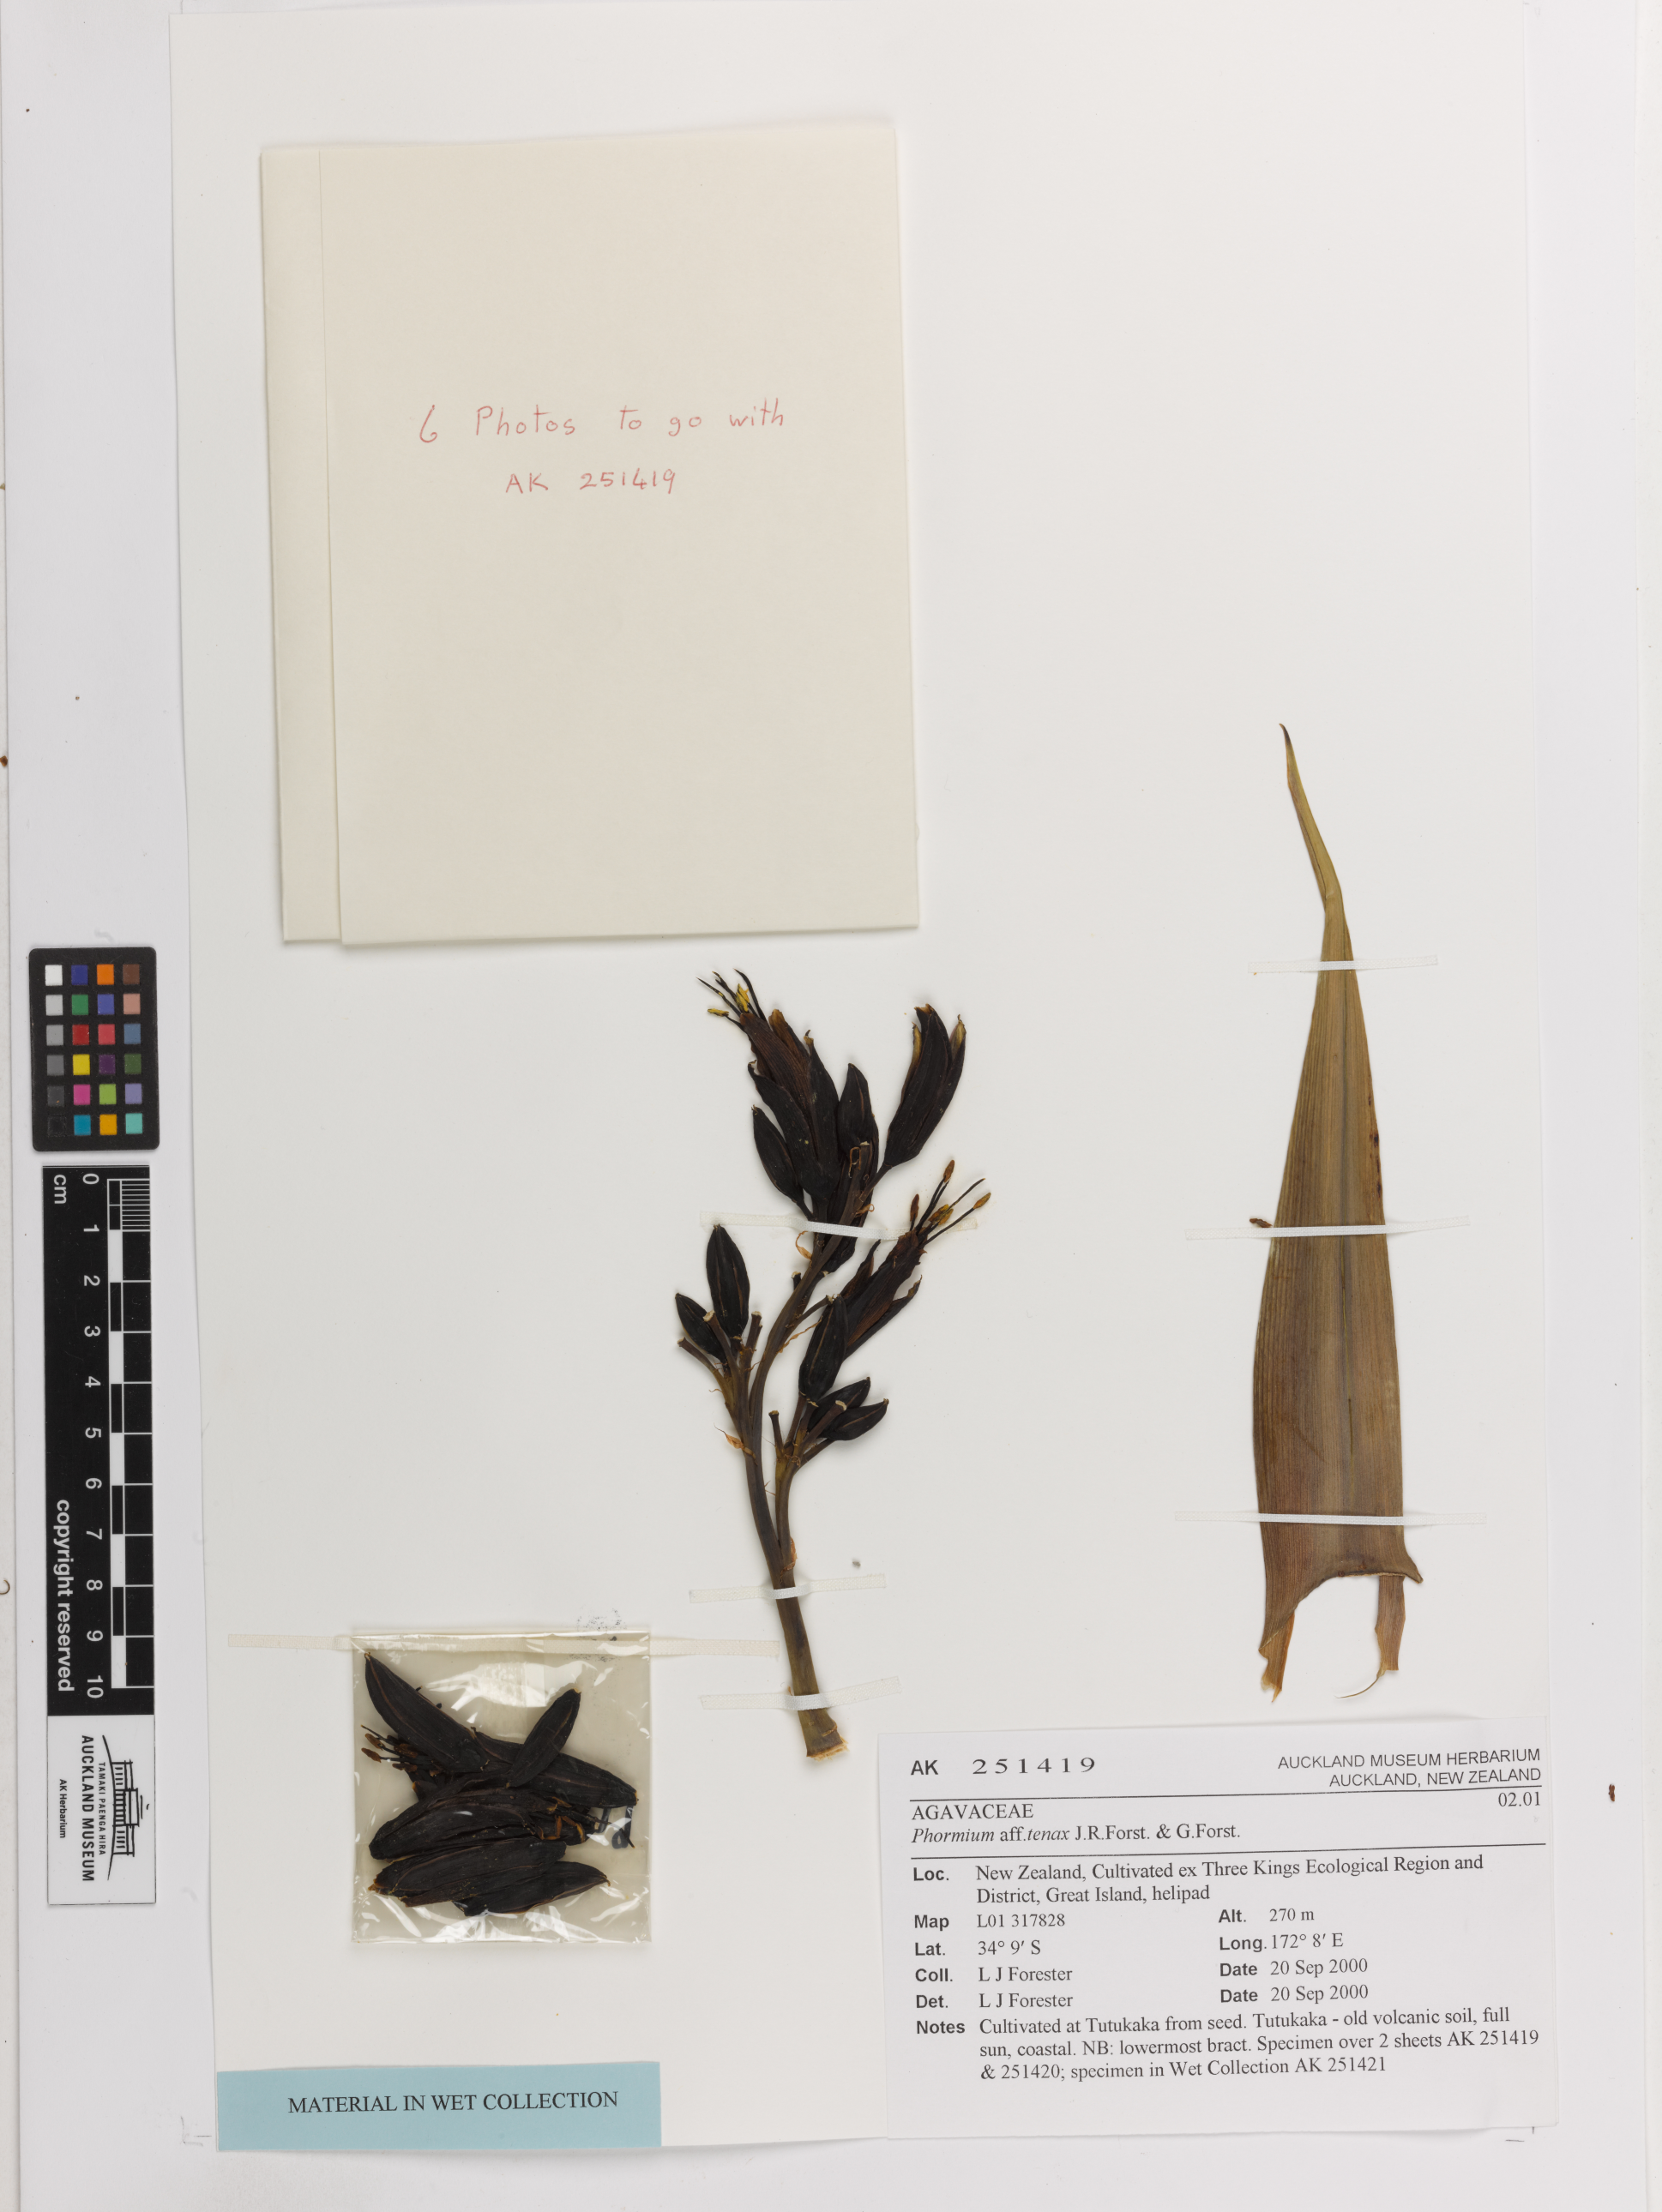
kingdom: Plantae
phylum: Tracheophyta
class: Liliopsida
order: Asparagales
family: Asphodelaceae
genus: Phormium
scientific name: Phormium tenax
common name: New zealand flax
